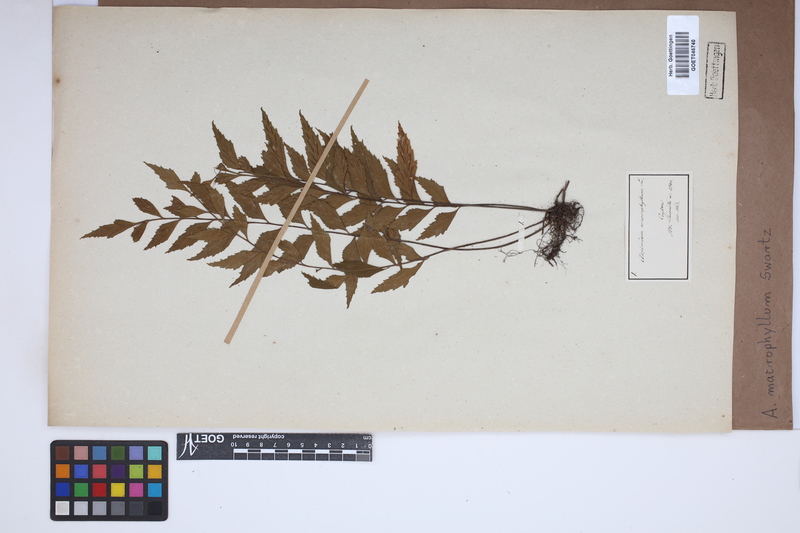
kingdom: Plantae
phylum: Tracheophyta
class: Polypodiopsida
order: Polypodiales
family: Aspleniaceae
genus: Asplenium
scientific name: Asplenium macrophyllum
